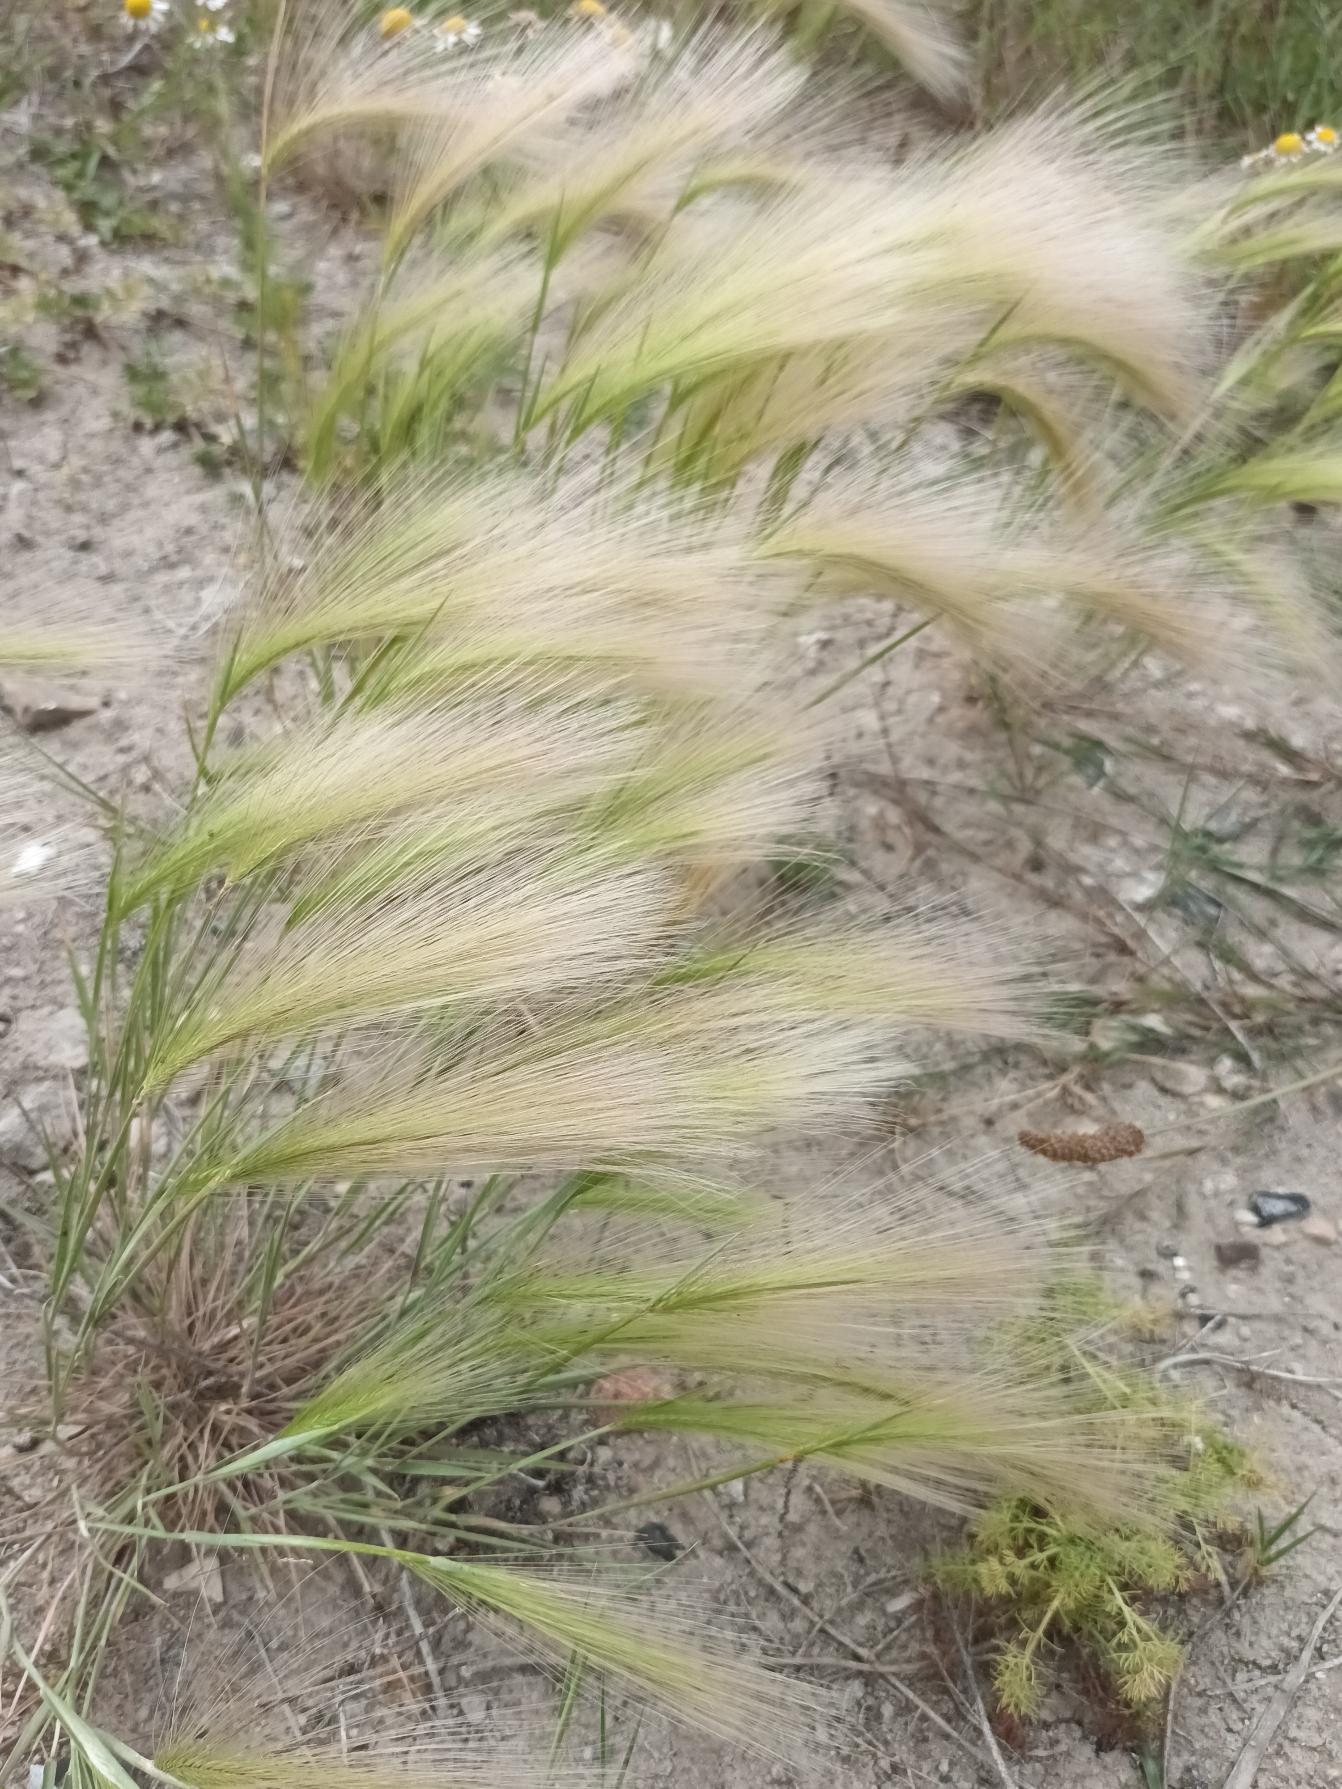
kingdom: Plantae
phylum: Tracheophyta
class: Liliopsida
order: Poales
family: Poaceae
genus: Hordeum
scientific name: Hordeum jubatum
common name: Egernhale-byg
